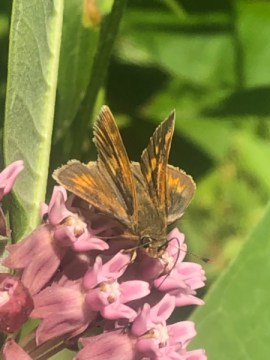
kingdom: Animalia
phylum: Arthropoda
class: Insecta
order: Lepidoptera
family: Hesperiidae
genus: Euphyes
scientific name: Euphyes conspicua
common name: Black Dash
